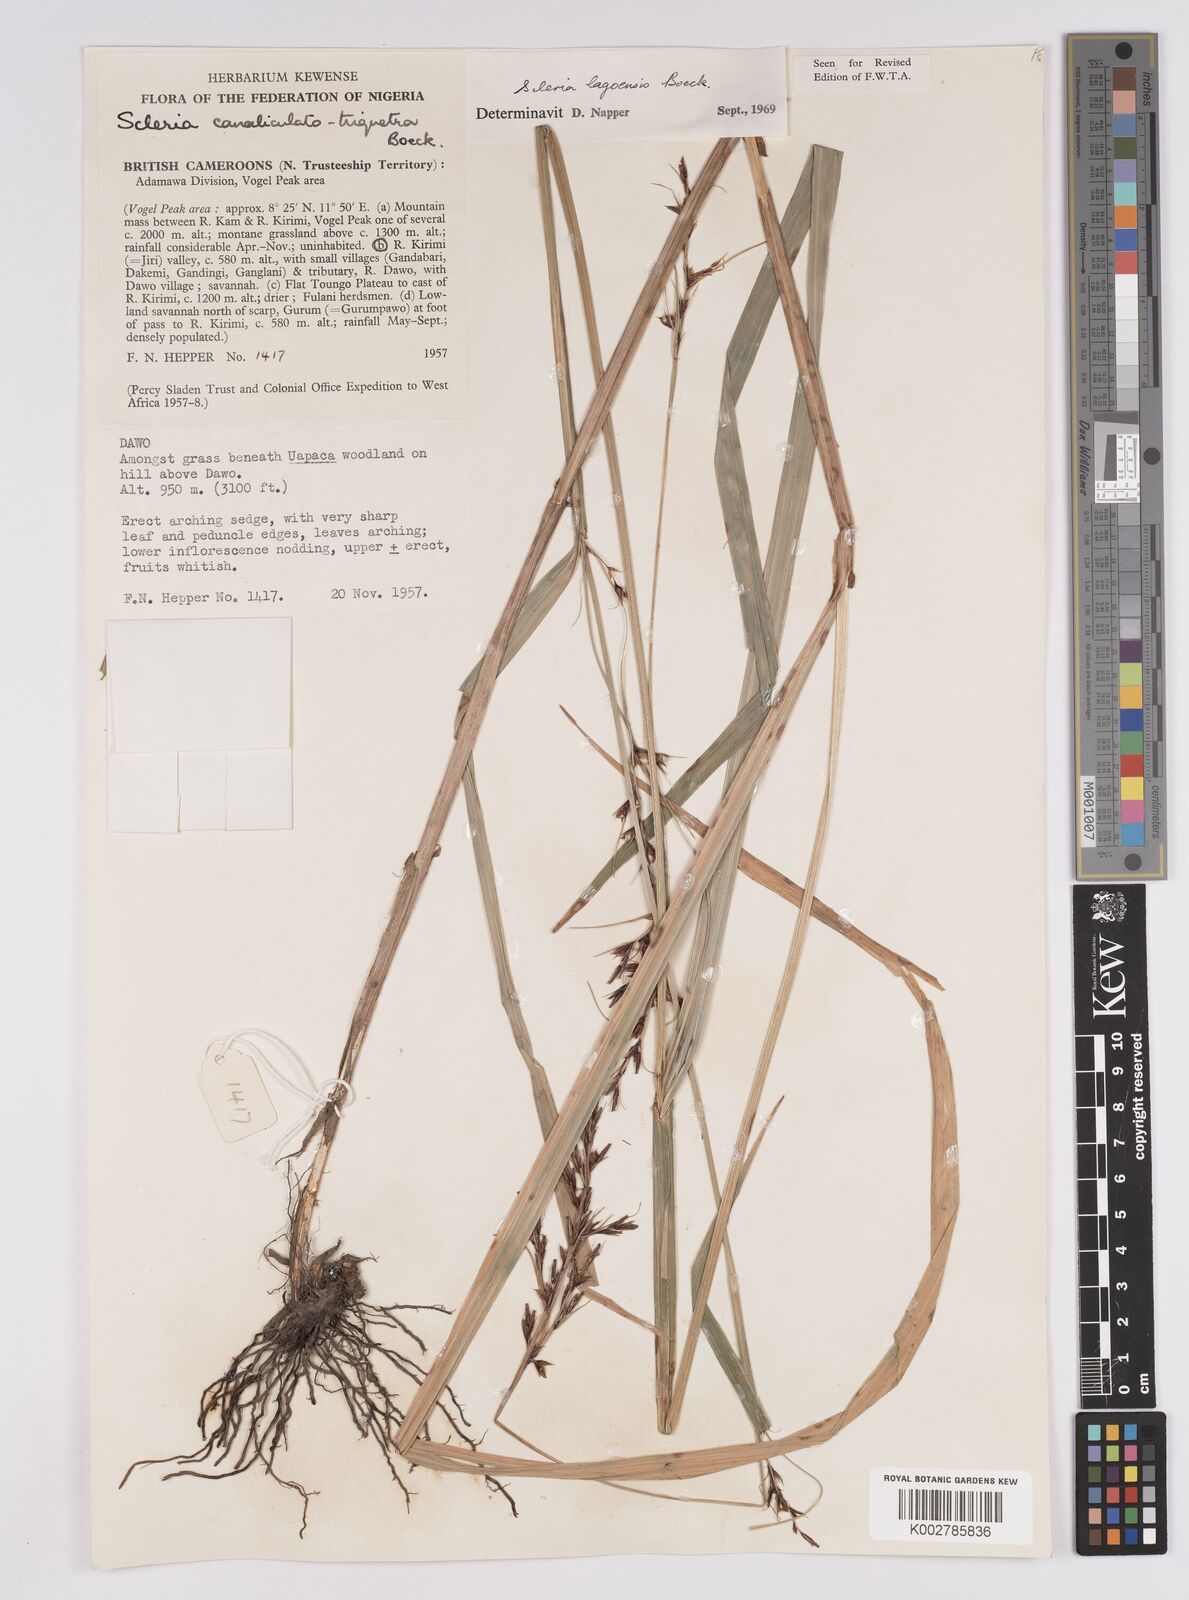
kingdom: Plantae
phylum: Tracheophyta
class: Liliopsida
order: Poales
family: Cyperaceae
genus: Scleria
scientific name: Scleria lagoensis
